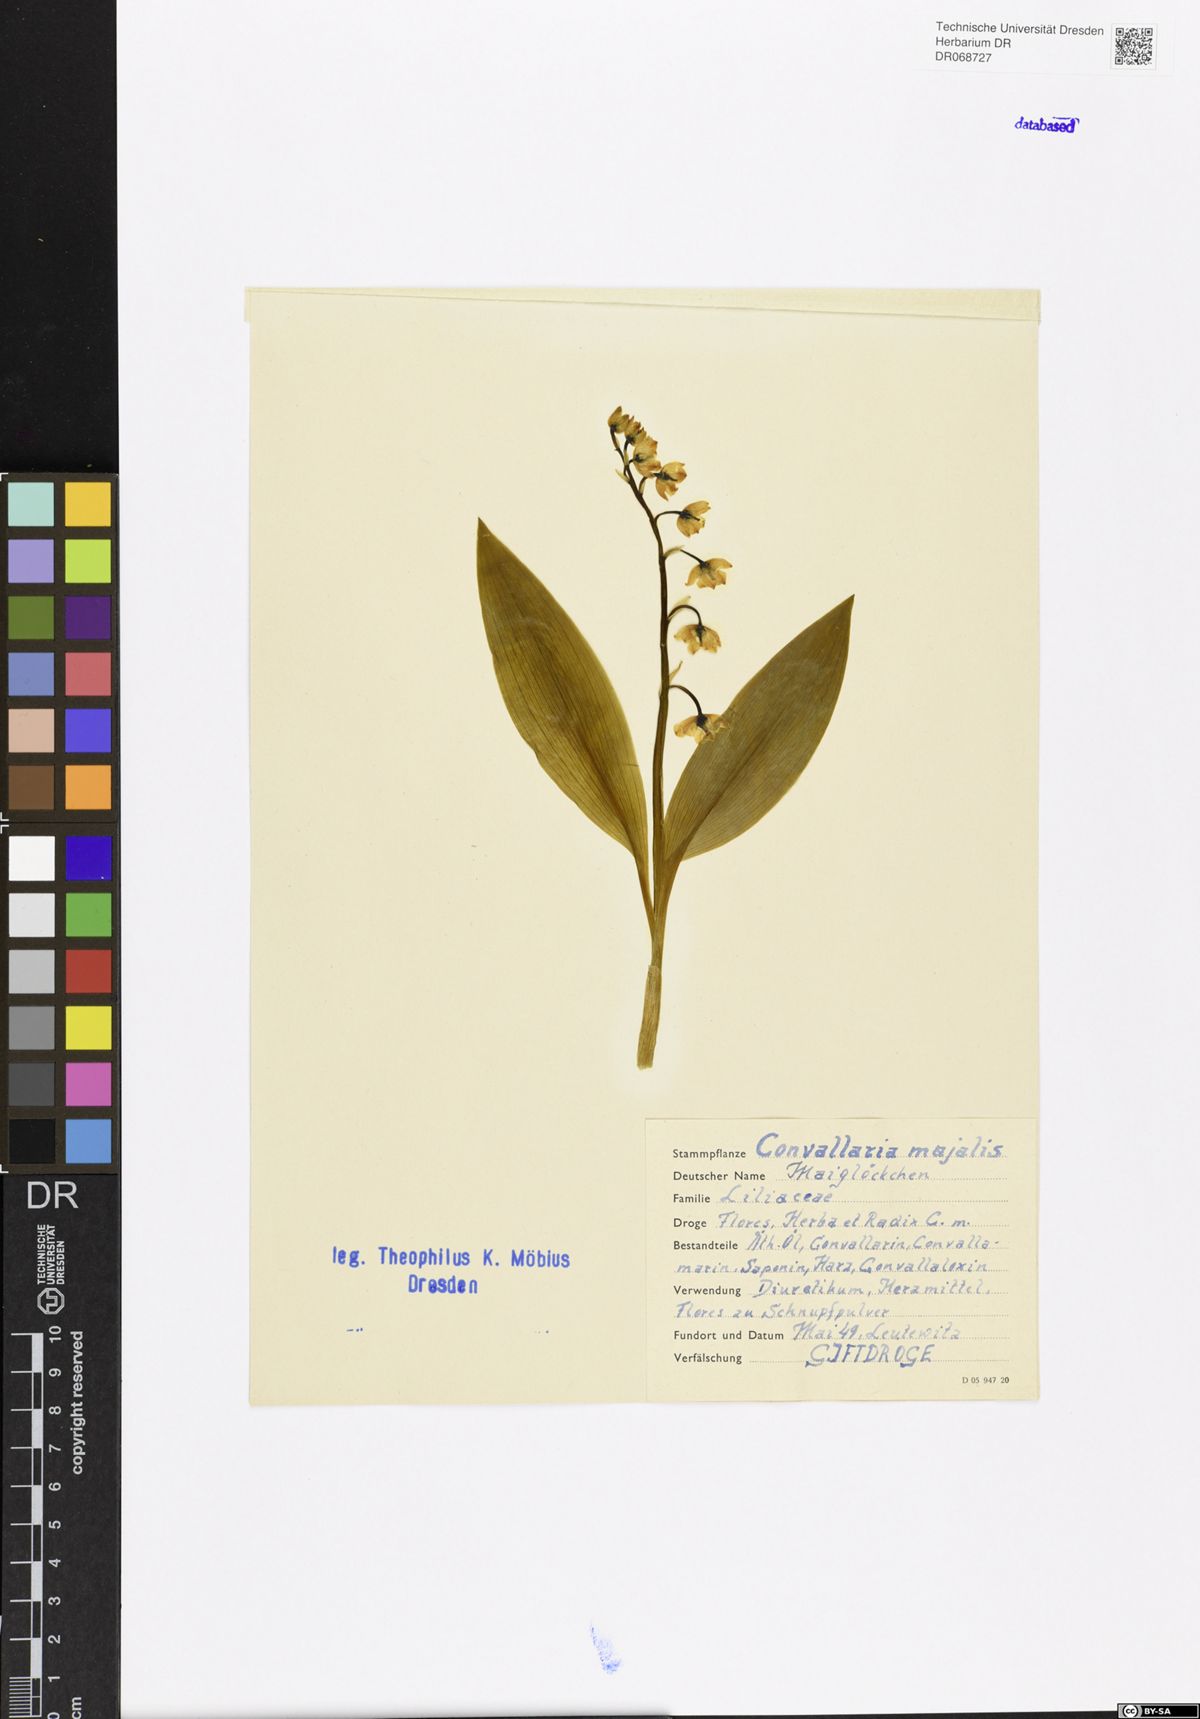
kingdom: Plantae
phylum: Tracheophyta
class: Liliopsida
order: Asparagales
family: Asparagaceae
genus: Convallaria
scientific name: Convallaria majalis
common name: Lily-of-the-valley
